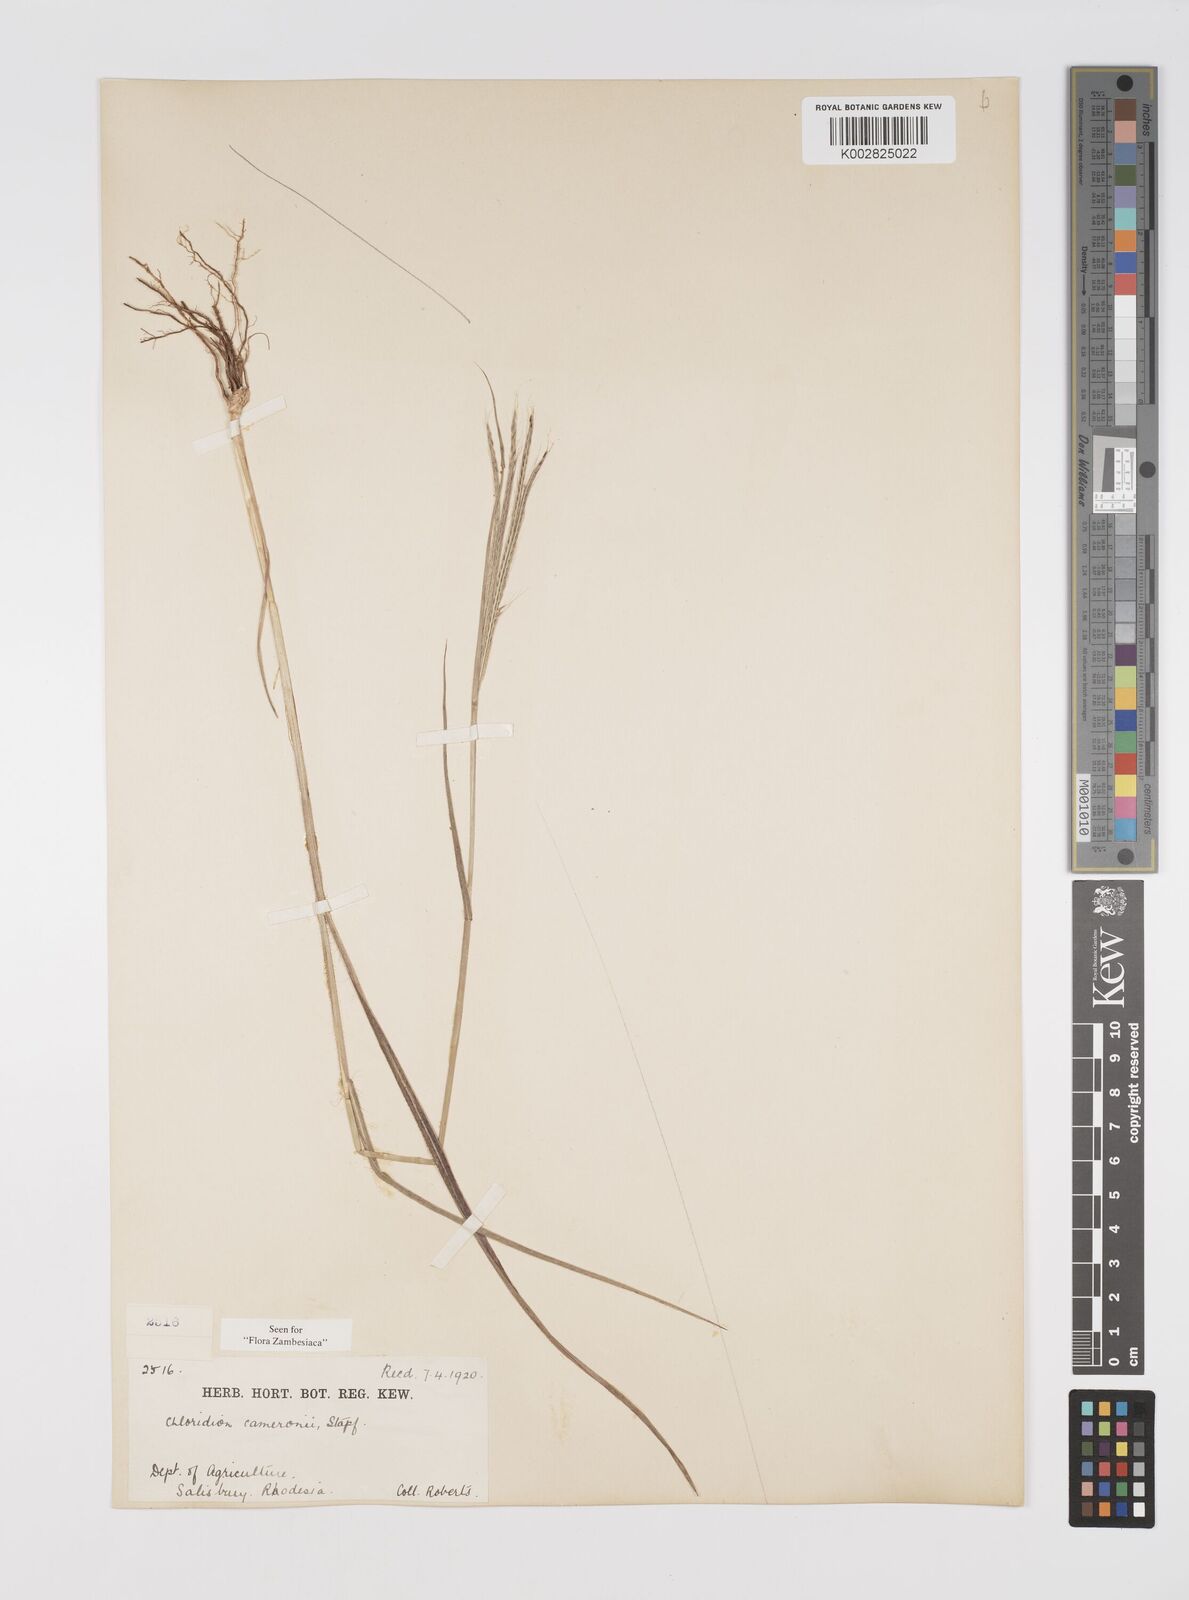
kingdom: Plantae
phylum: Tracheophyta
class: Liliopsida
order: Poales
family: Poaceae
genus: Stereochlaena
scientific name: Stereochlaena cameronii
